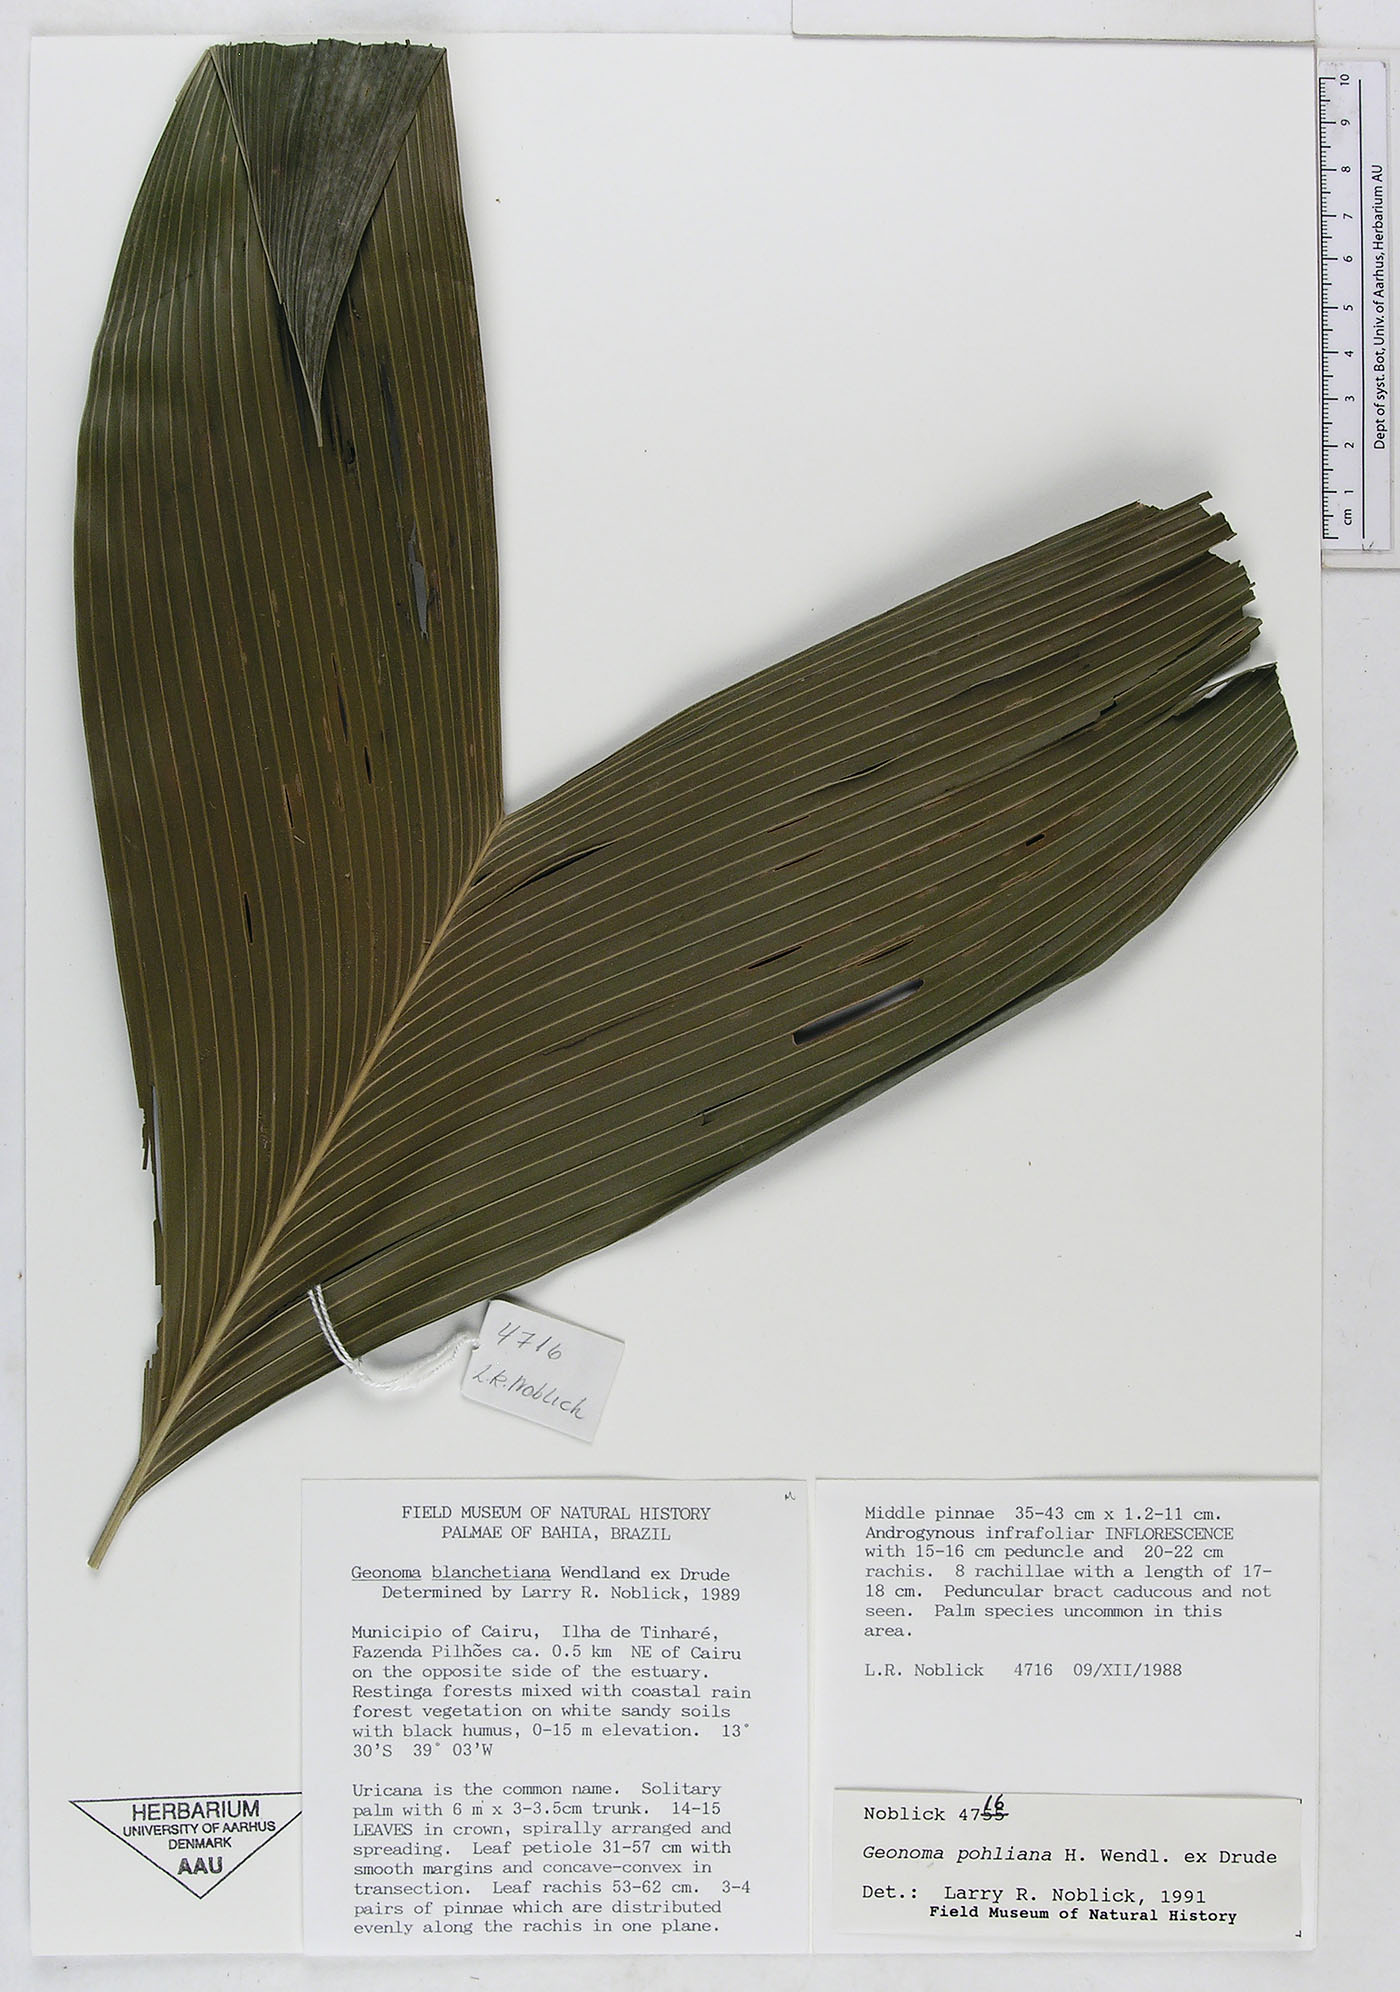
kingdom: Plantae
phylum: Tracheophyta
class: Liliopsida
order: Arecales
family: Arecaceae
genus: Geonoma
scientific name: Geonoma pohliana
